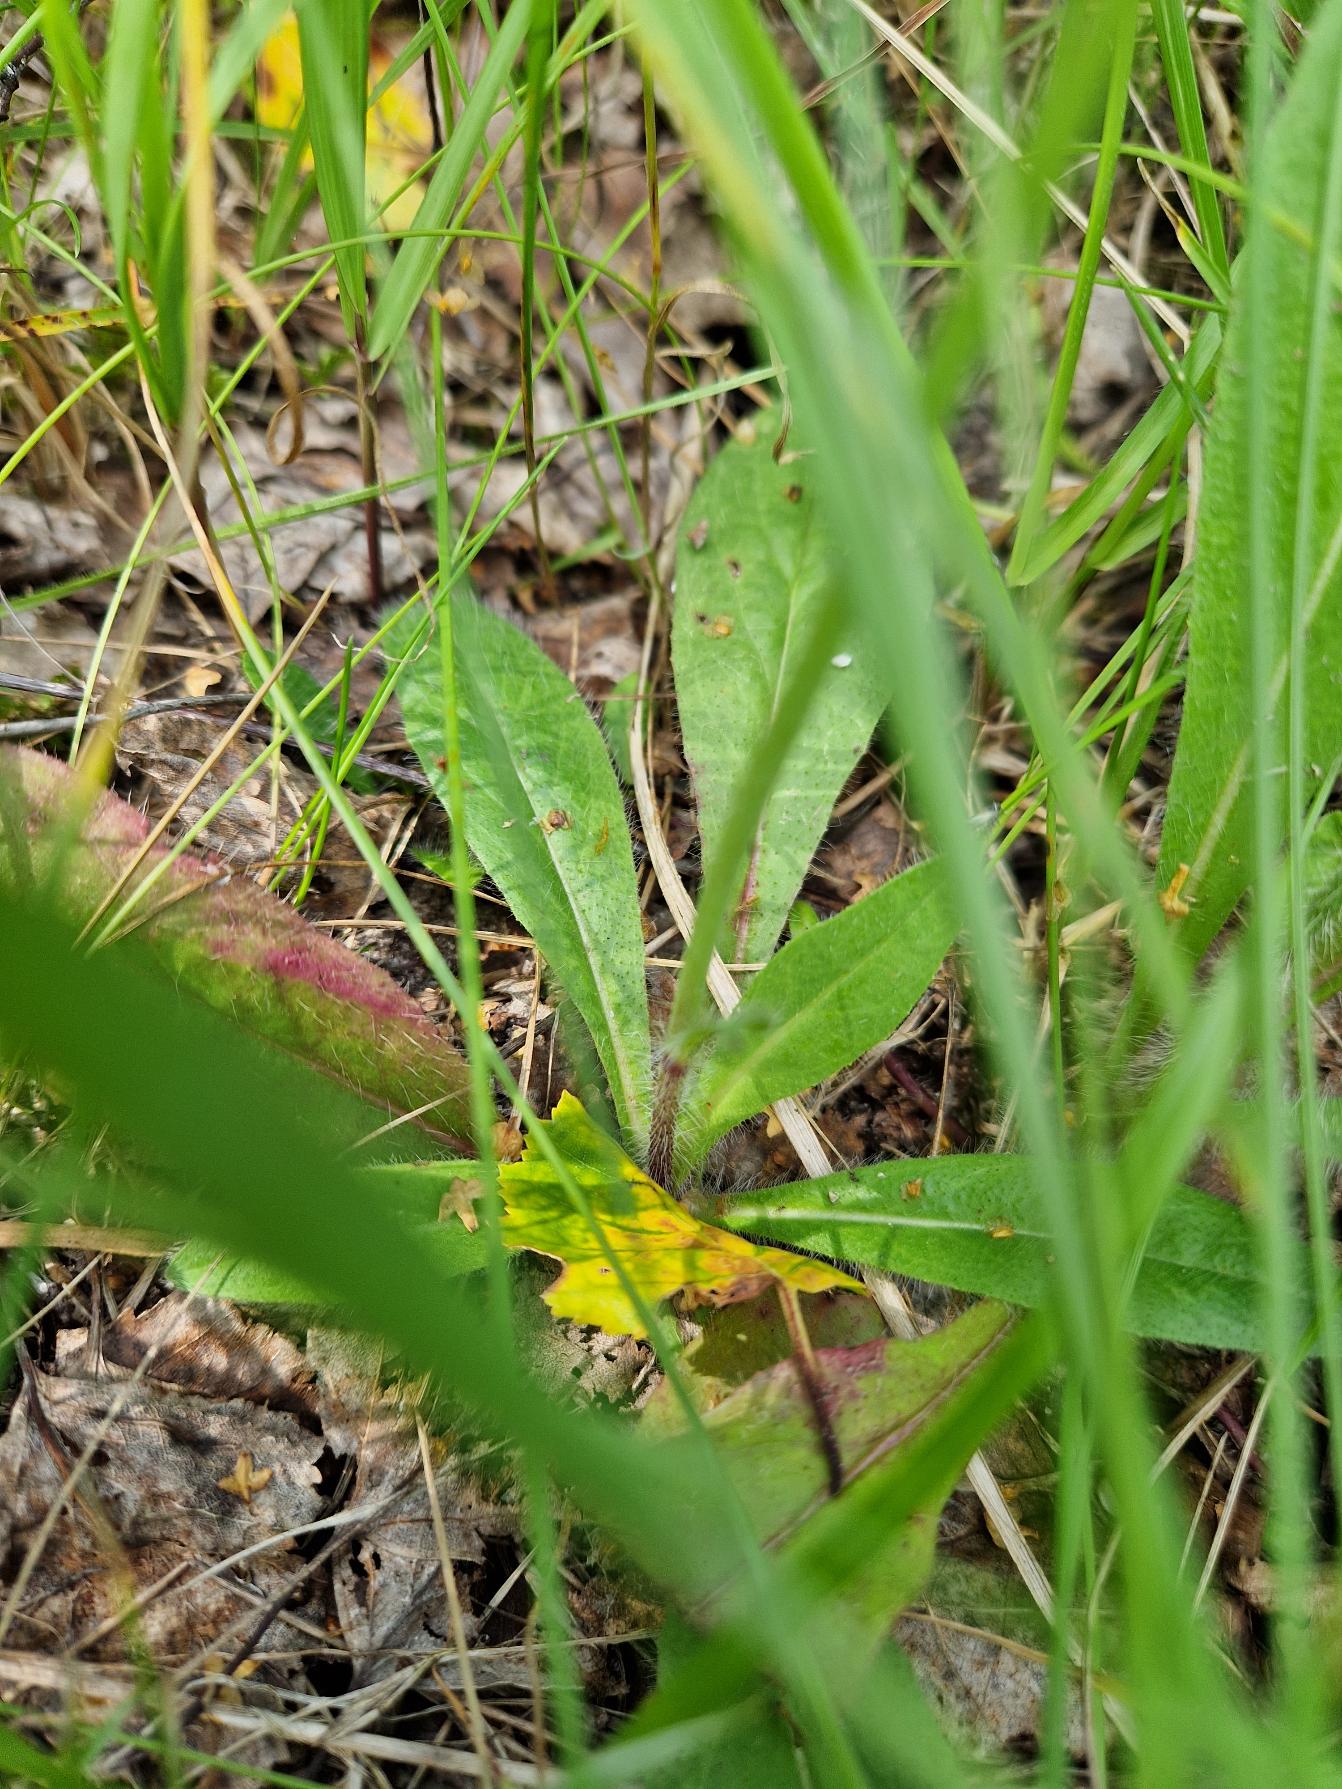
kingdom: Plantae
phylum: Tracheophyta
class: Magnoliopsida
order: Asterales
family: Asteraceae
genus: Pilosella
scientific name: Pilosella aurantiaca
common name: Pomerans-høgeurt
